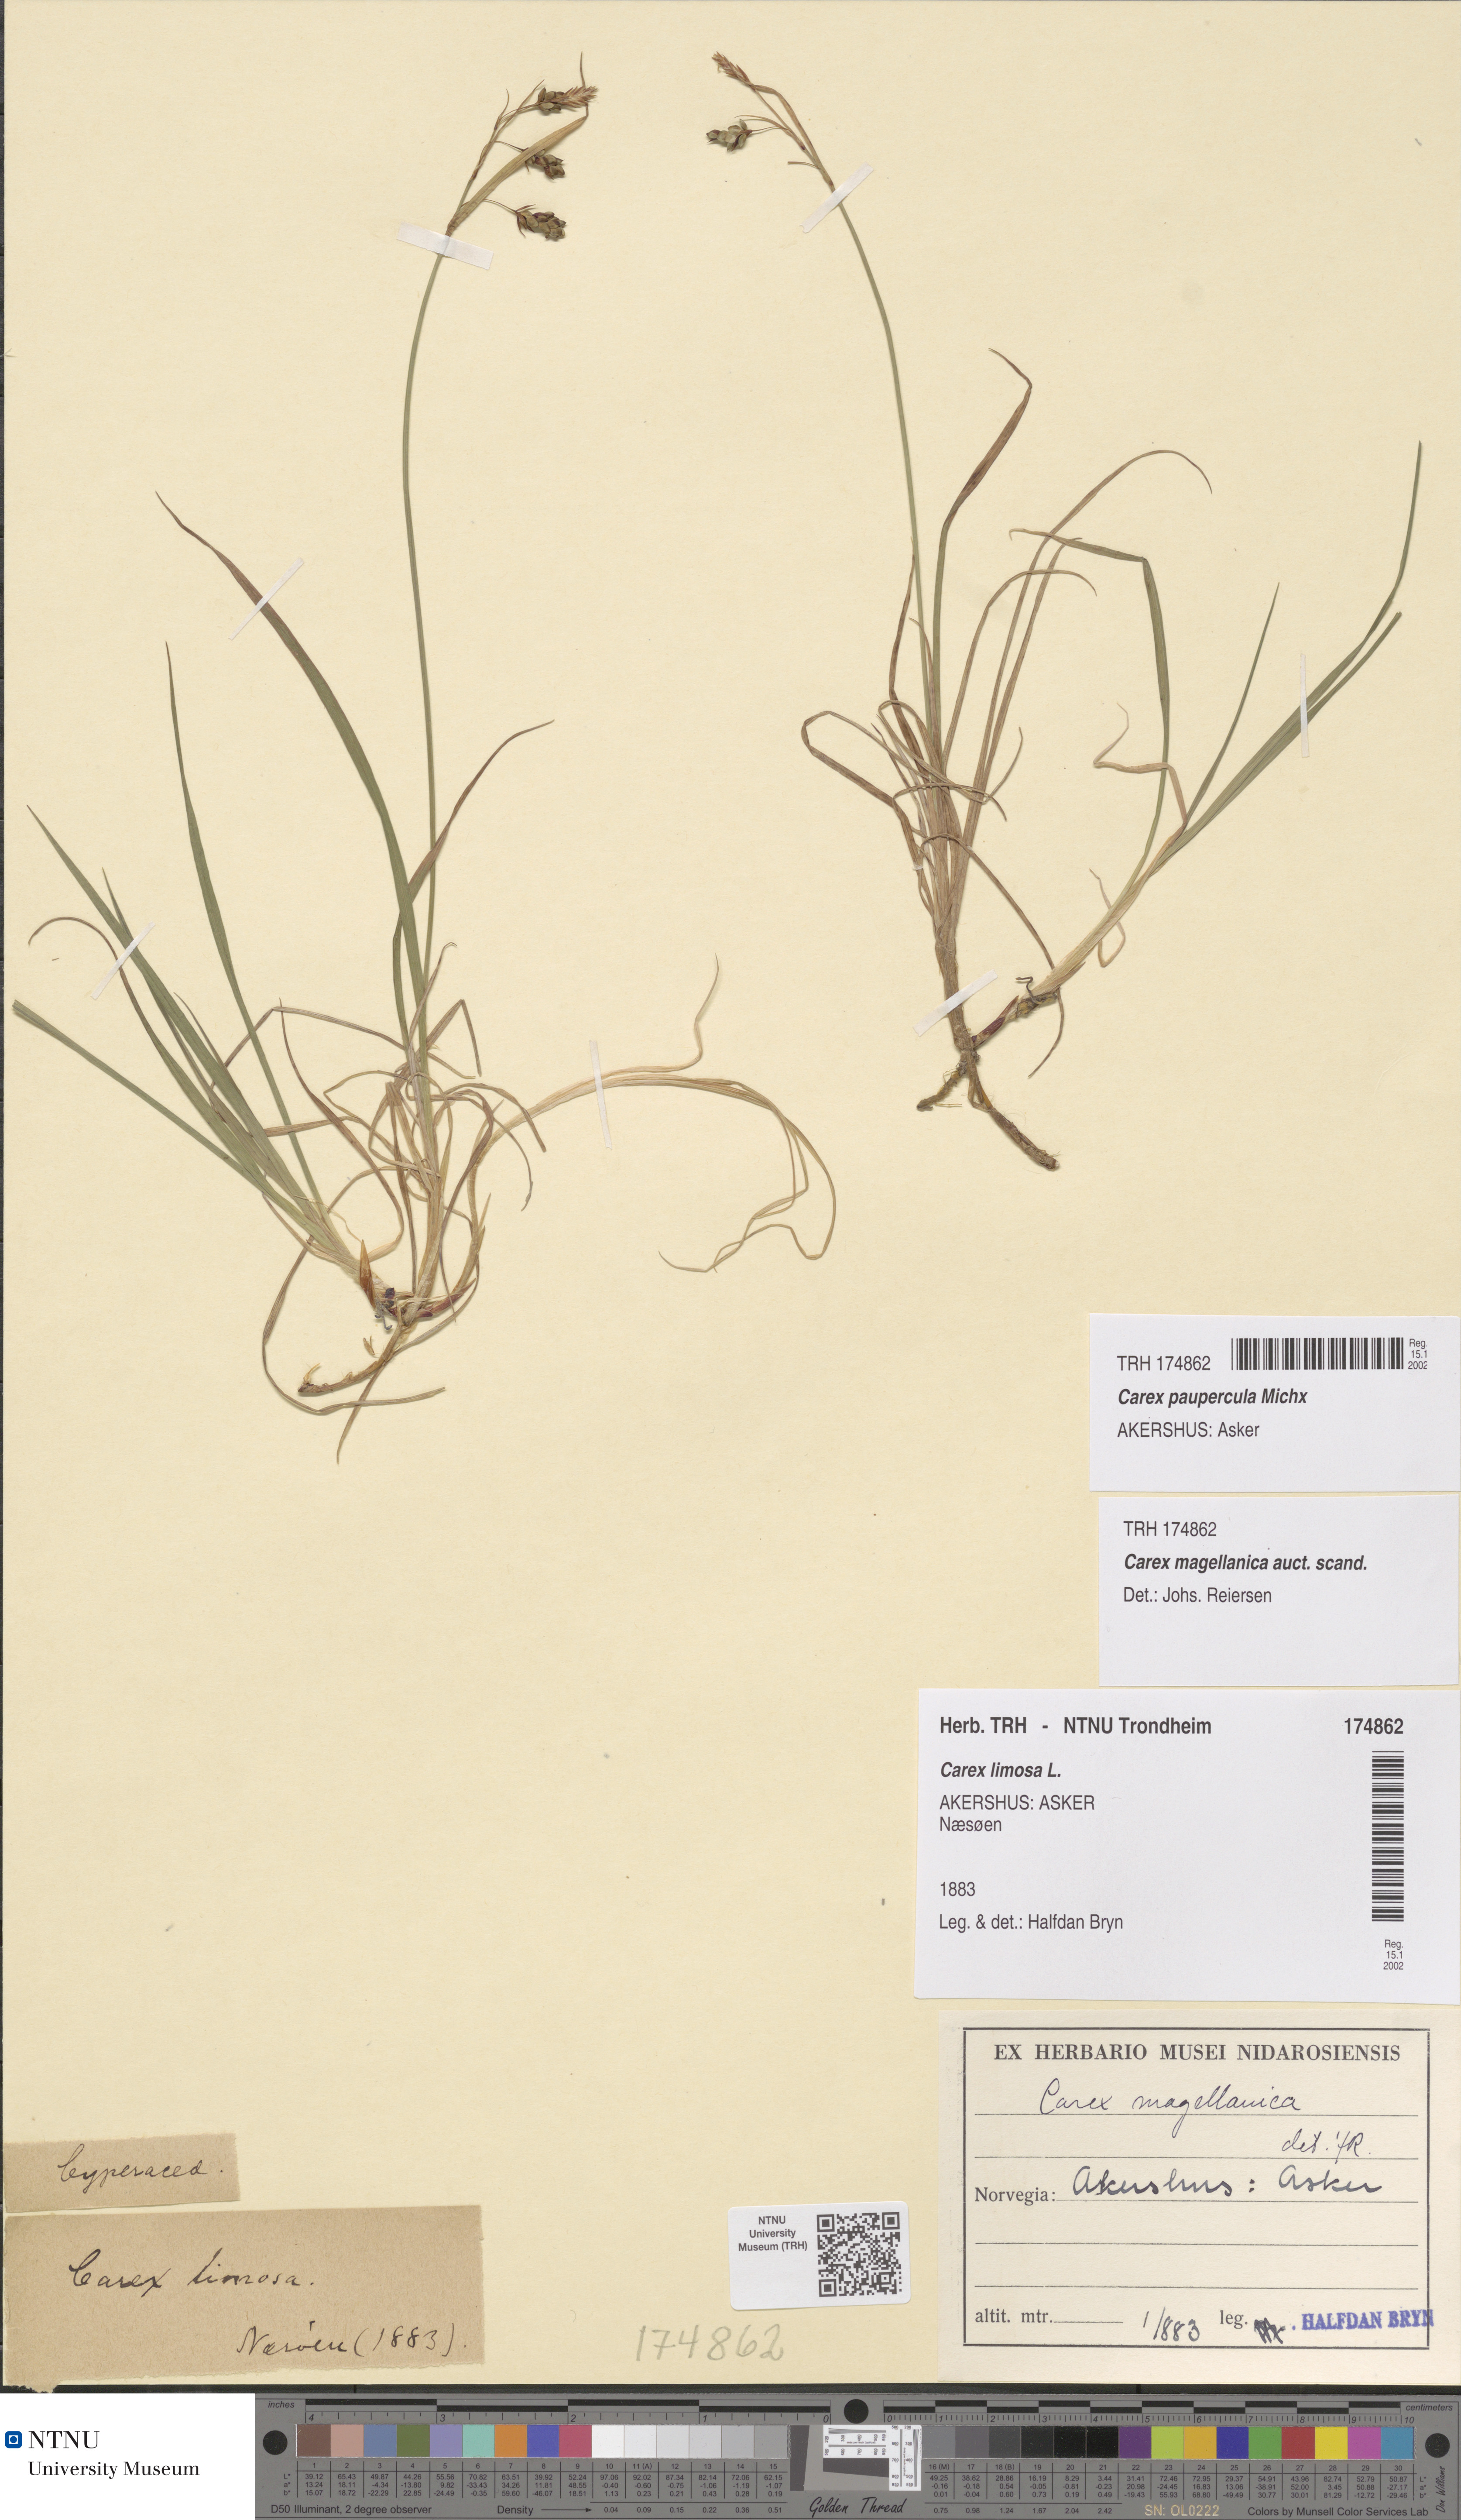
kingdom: Plantae
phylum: Tracheophyta
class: Liliopsida
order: Poales
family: Cyperaceae
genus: Carex
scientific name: Carex magellanica
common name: Bog sedge
